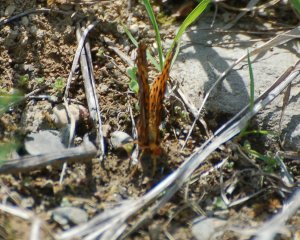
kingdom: Animalia
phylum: Arthropoda
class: Insecta
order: Lepidoptera
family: Nymphalidae
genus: Clossiana
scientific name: Clossiana toddi
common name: Meadow Fritillary
